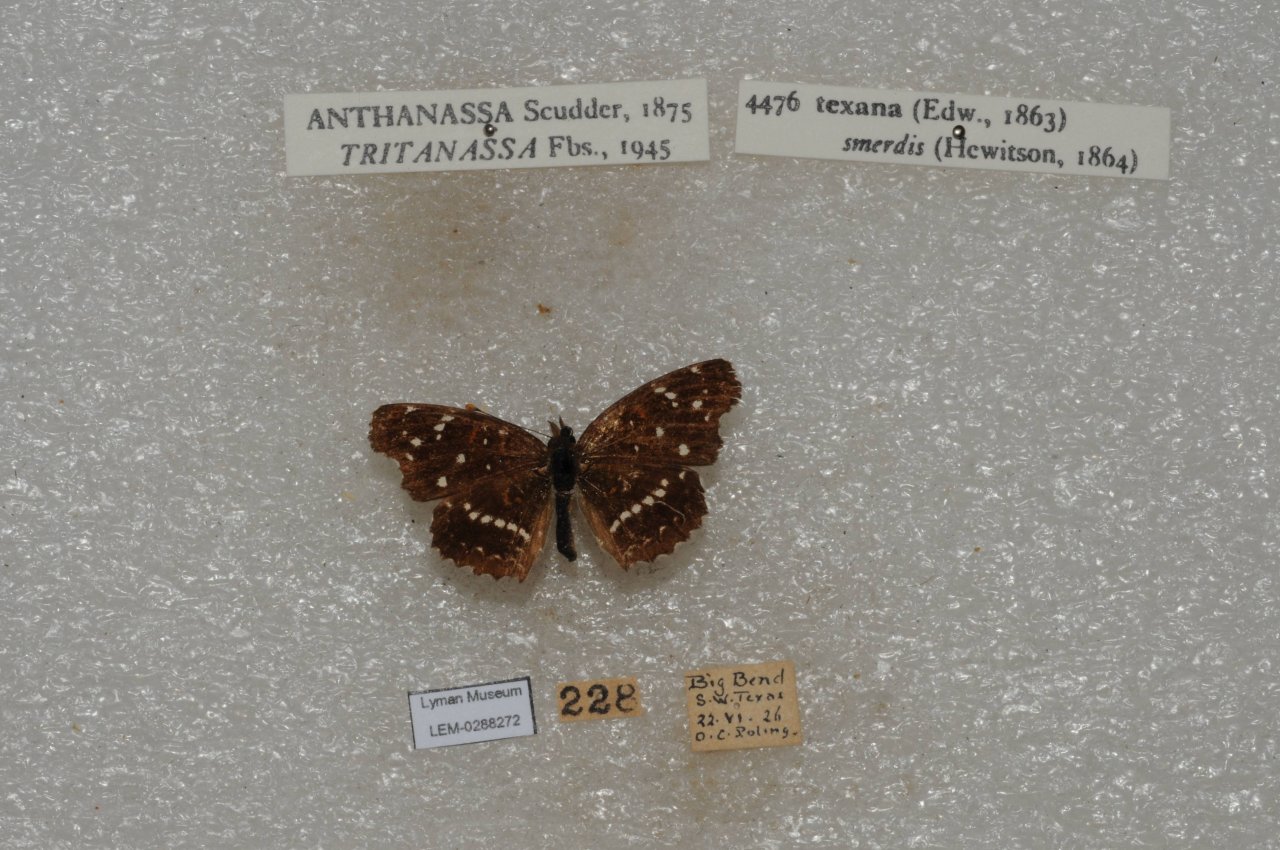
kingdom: Animalia
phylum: Arthropoda
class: Insecta
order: Lepidoptera
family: Nymphalidae
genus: Anthanassa
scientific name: Anthanassa texana
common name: Texan Crescent
